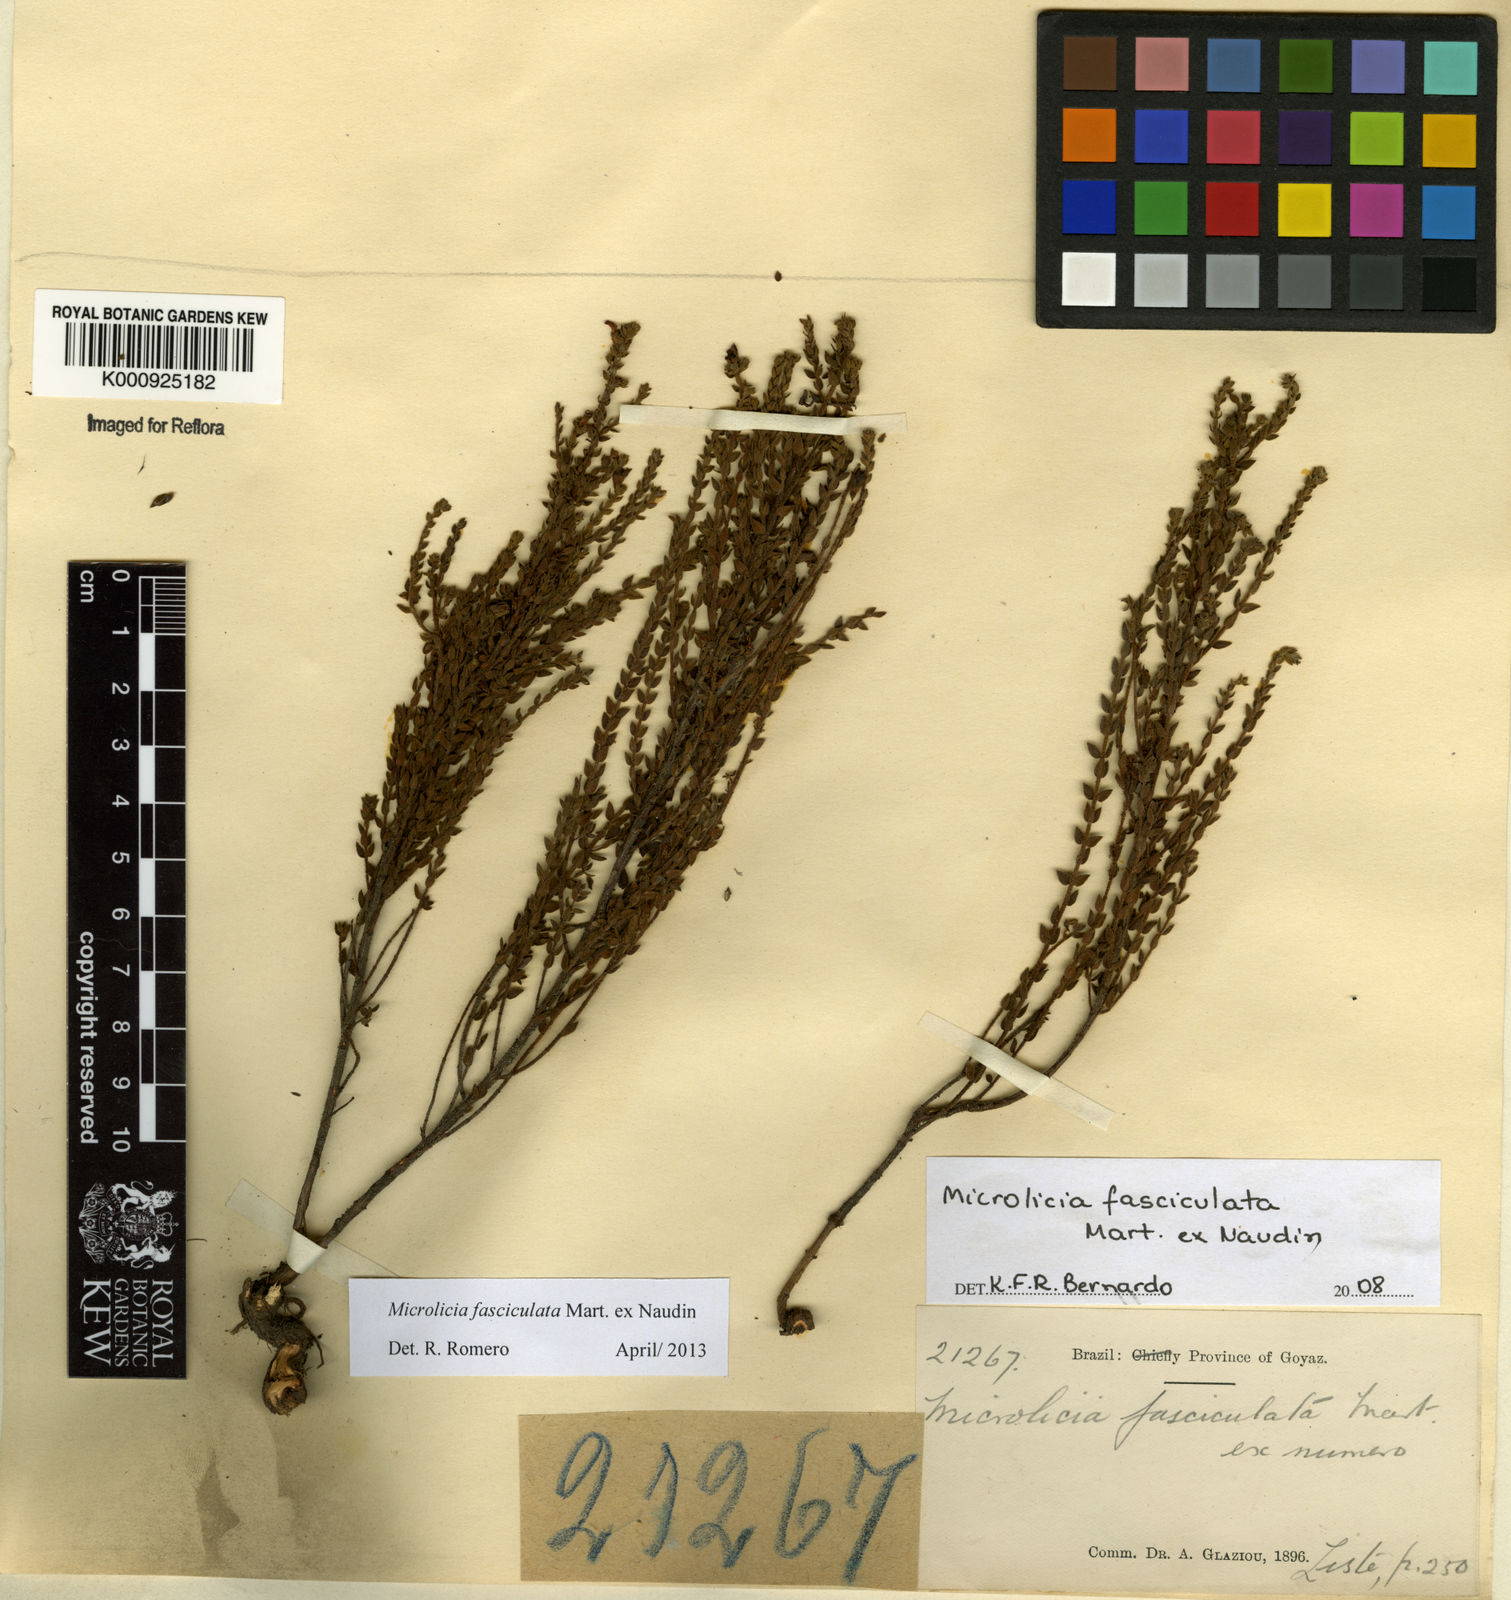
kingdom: Plantae
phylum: Tracheophyta
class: Magnoliopsida
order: Myrtales
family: Melastomataceae
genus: Microlicia
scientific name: Microlicia fasciculata
